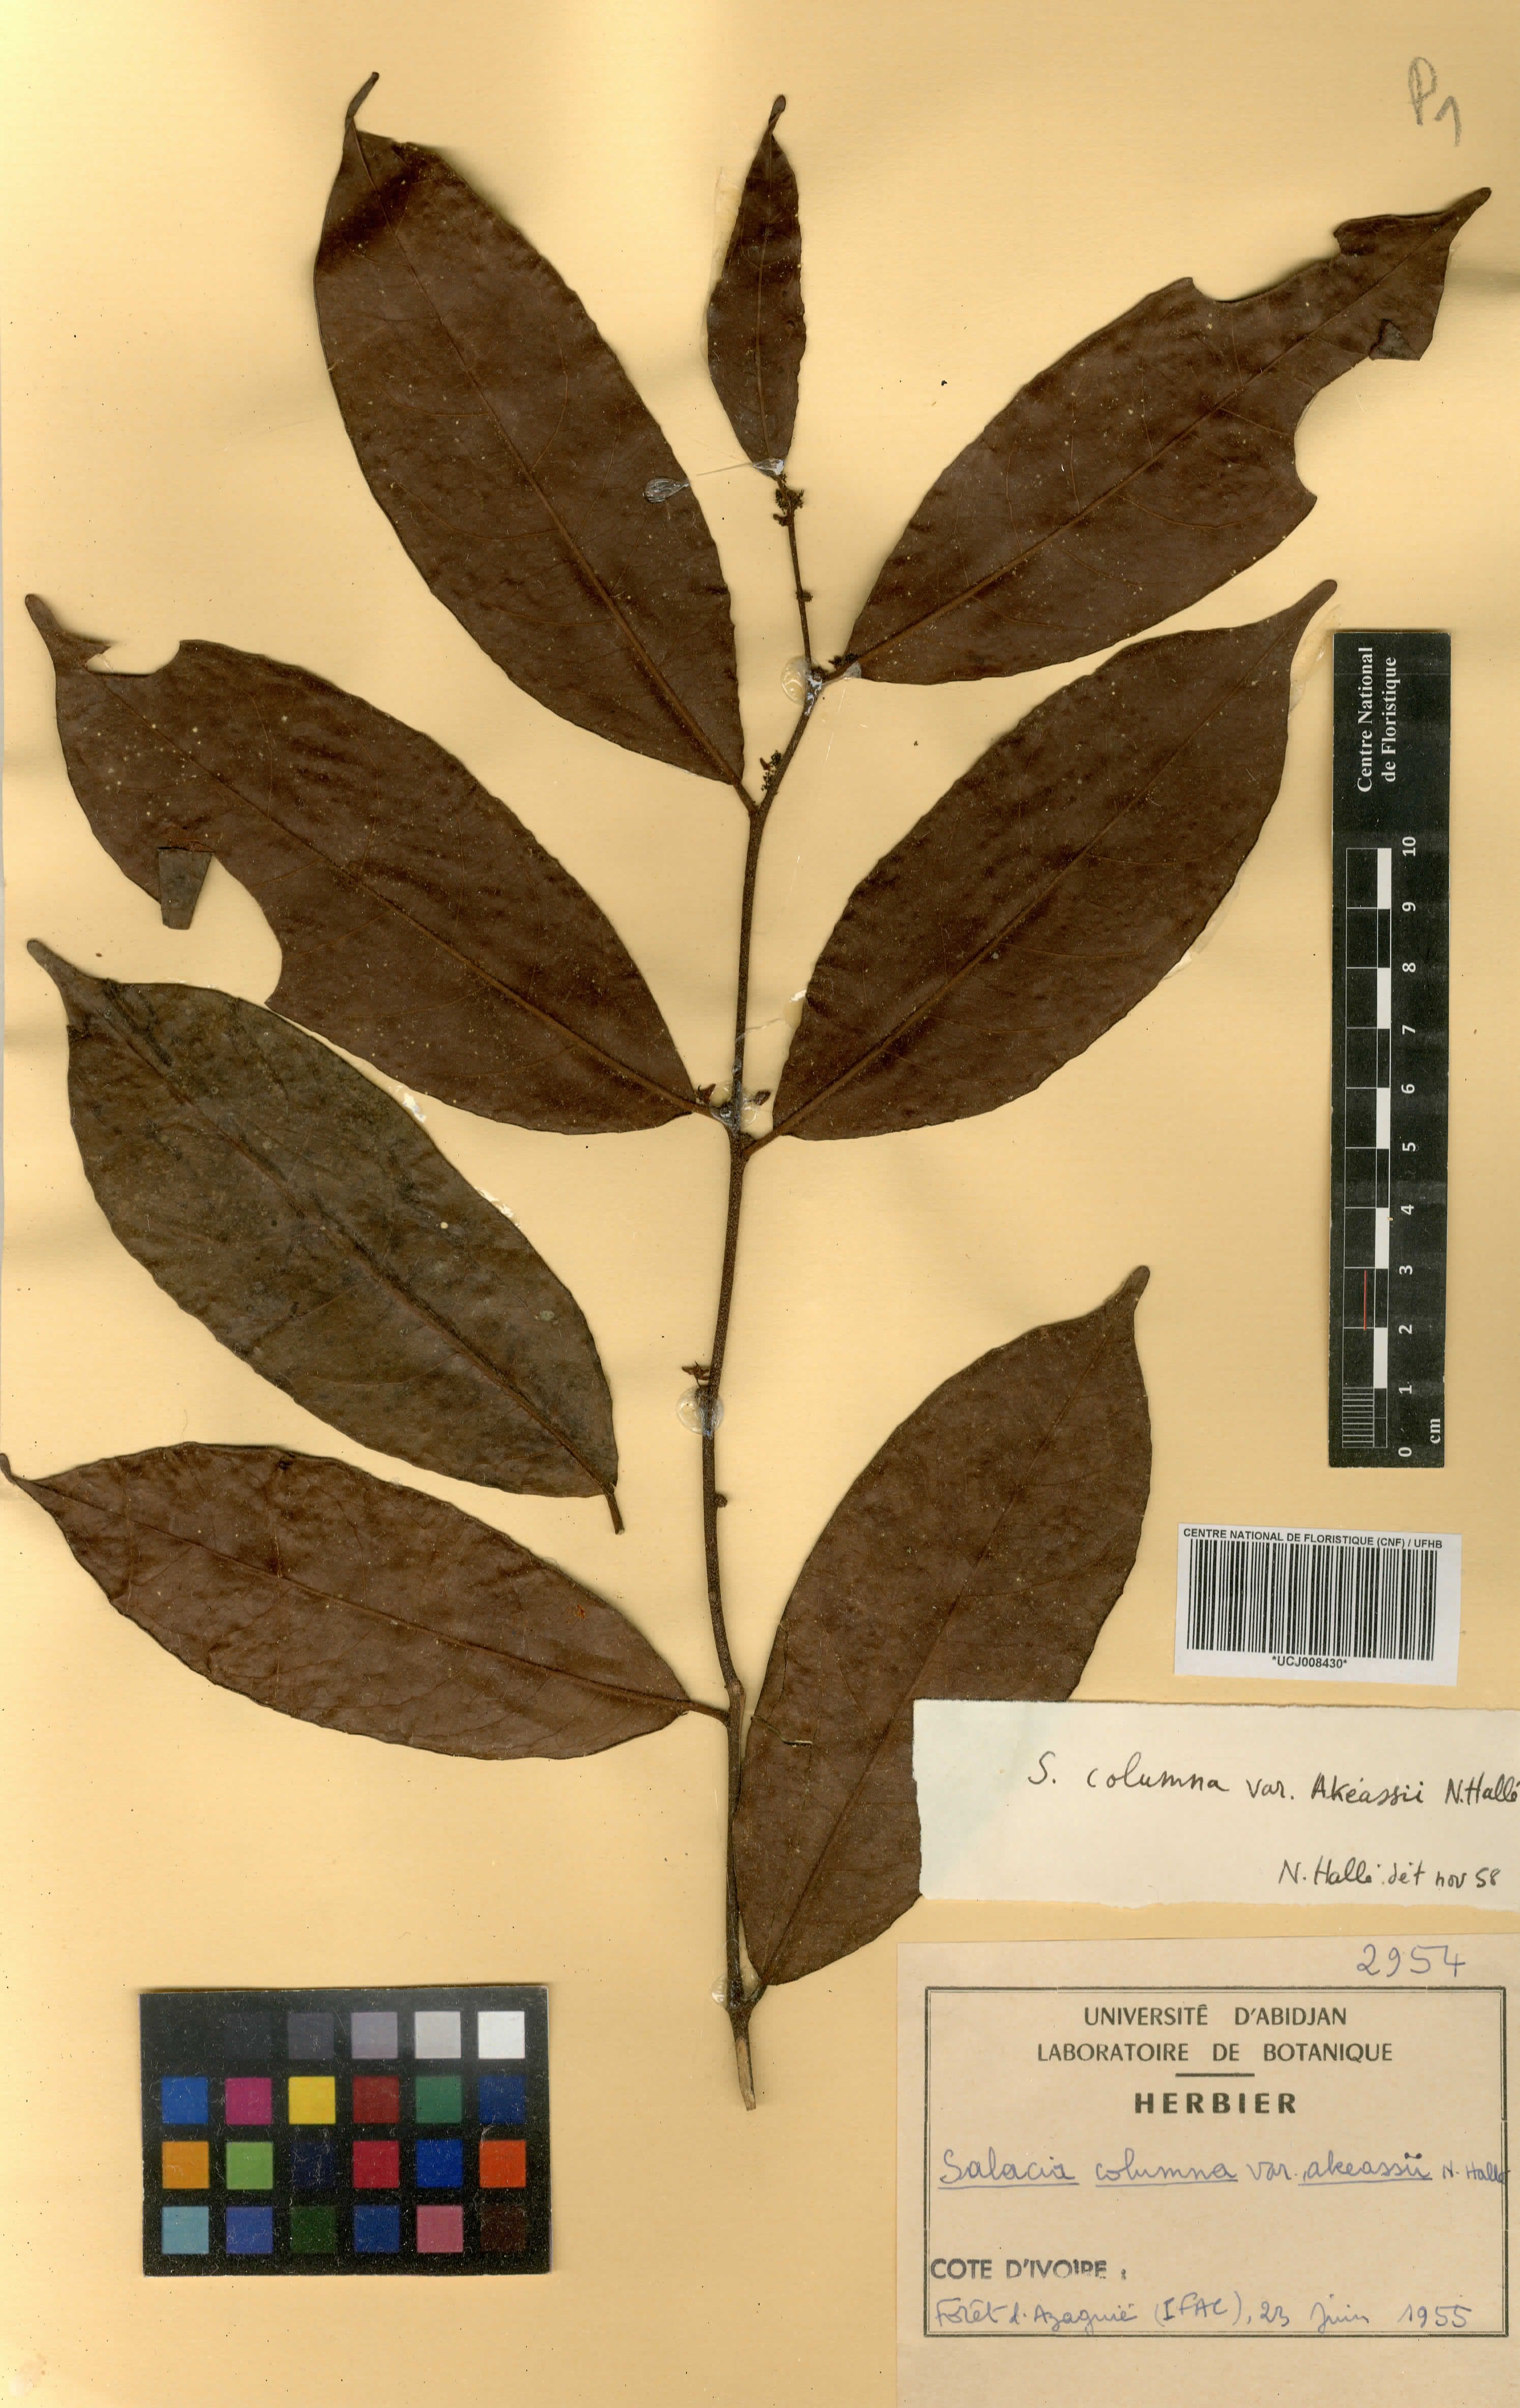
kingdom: Plantae
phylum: Tracheophyta
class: Magnoliopsida
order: Celastrales
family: Celastraceae
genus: Salacia
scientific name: Salacia columna
